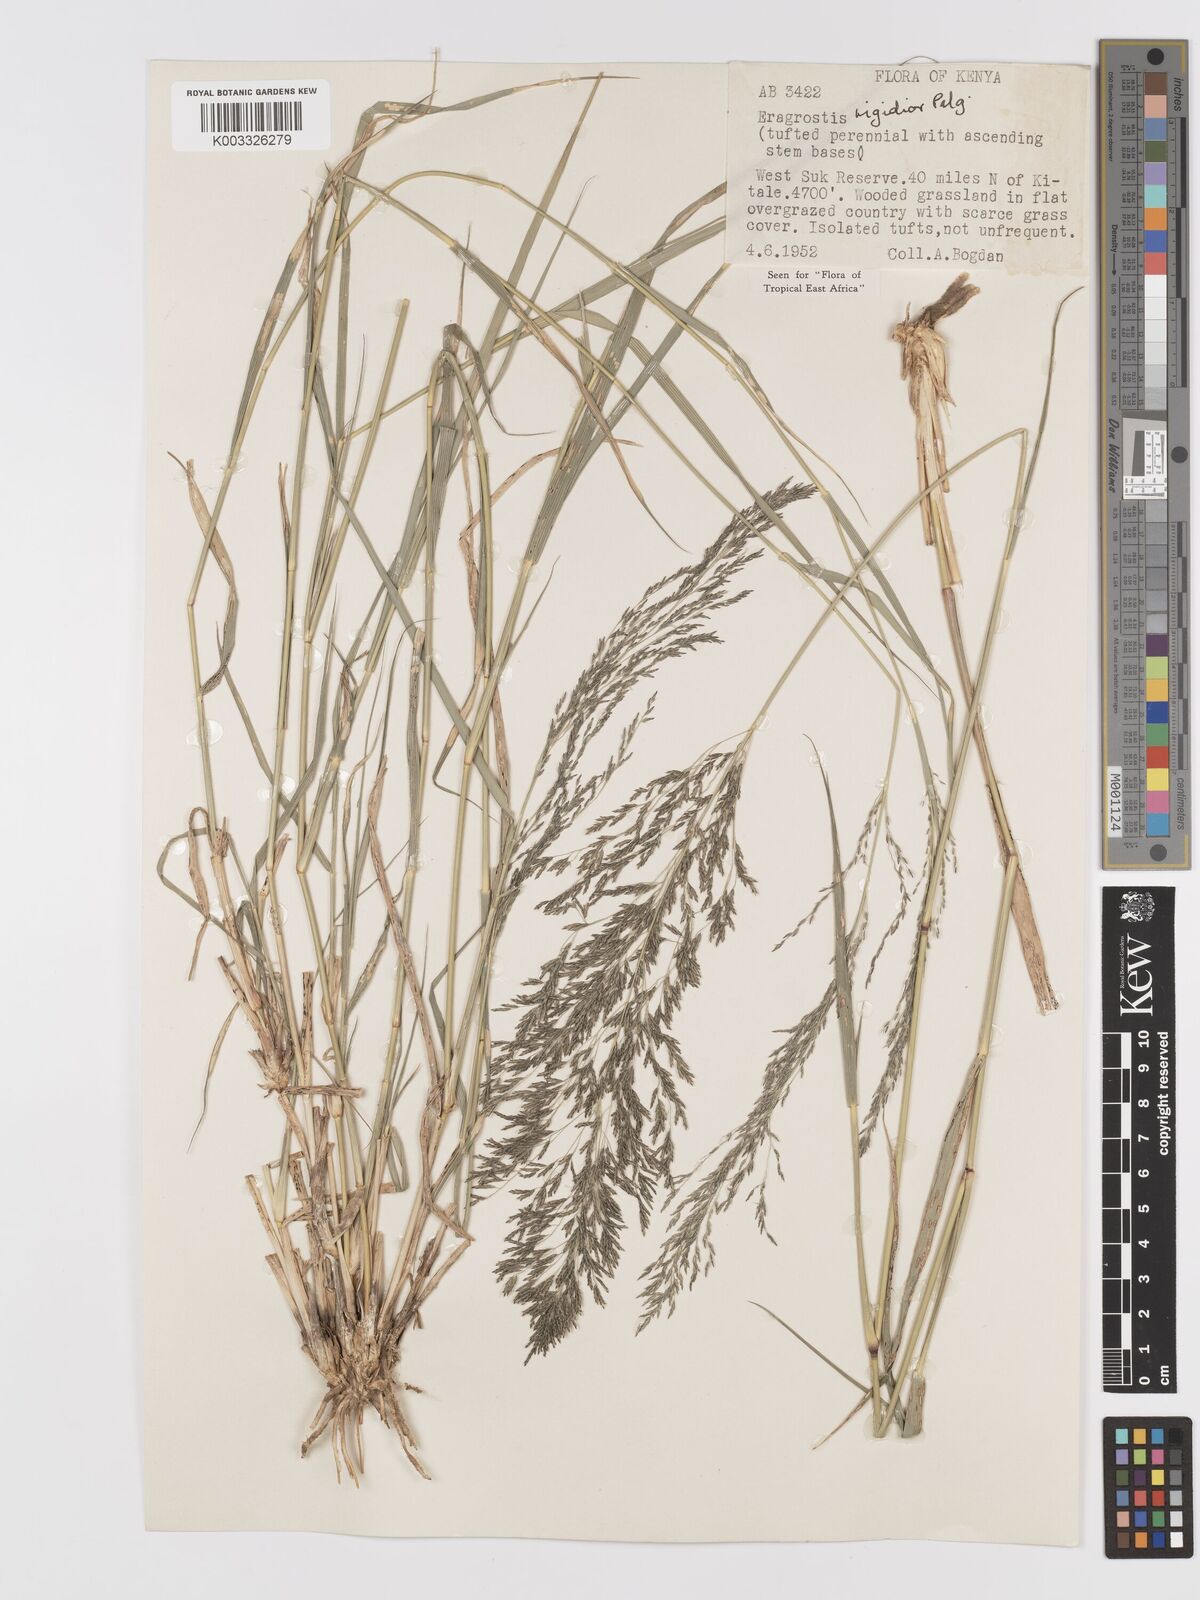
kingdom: Plantae
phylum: Tracheophyta
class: Liliopsida
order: Poales
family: Poaceae
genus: Eragrostis
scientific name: Eragrostis cylindriflora
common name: Cylinderflower lovegrass
